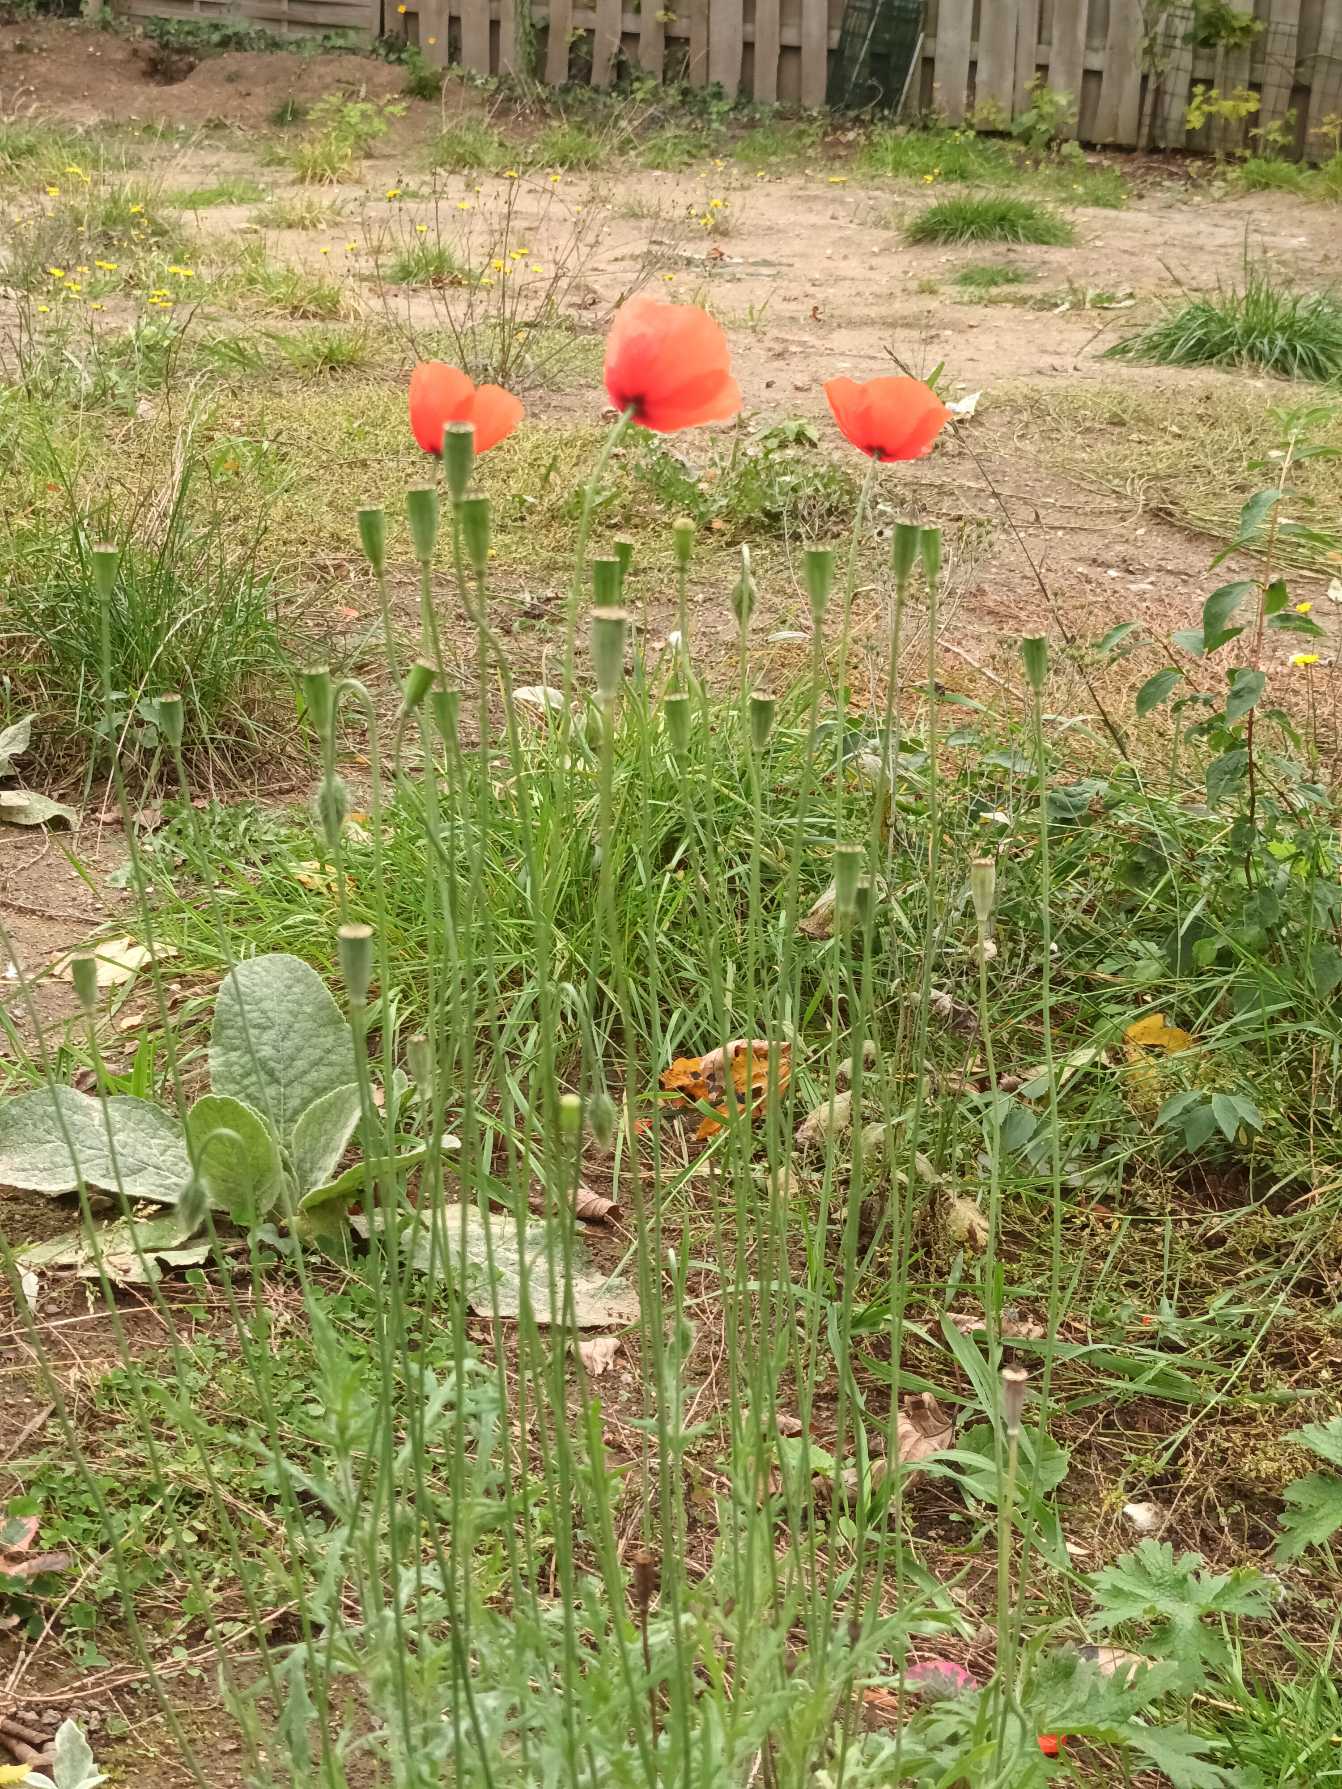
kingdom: Plantae
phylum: Tracheophyta
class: Magnoliopsida
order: Ranunculales
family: Papaveraceae
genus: Papaver
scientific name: Papaver dubium
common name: Gærde-valmue
